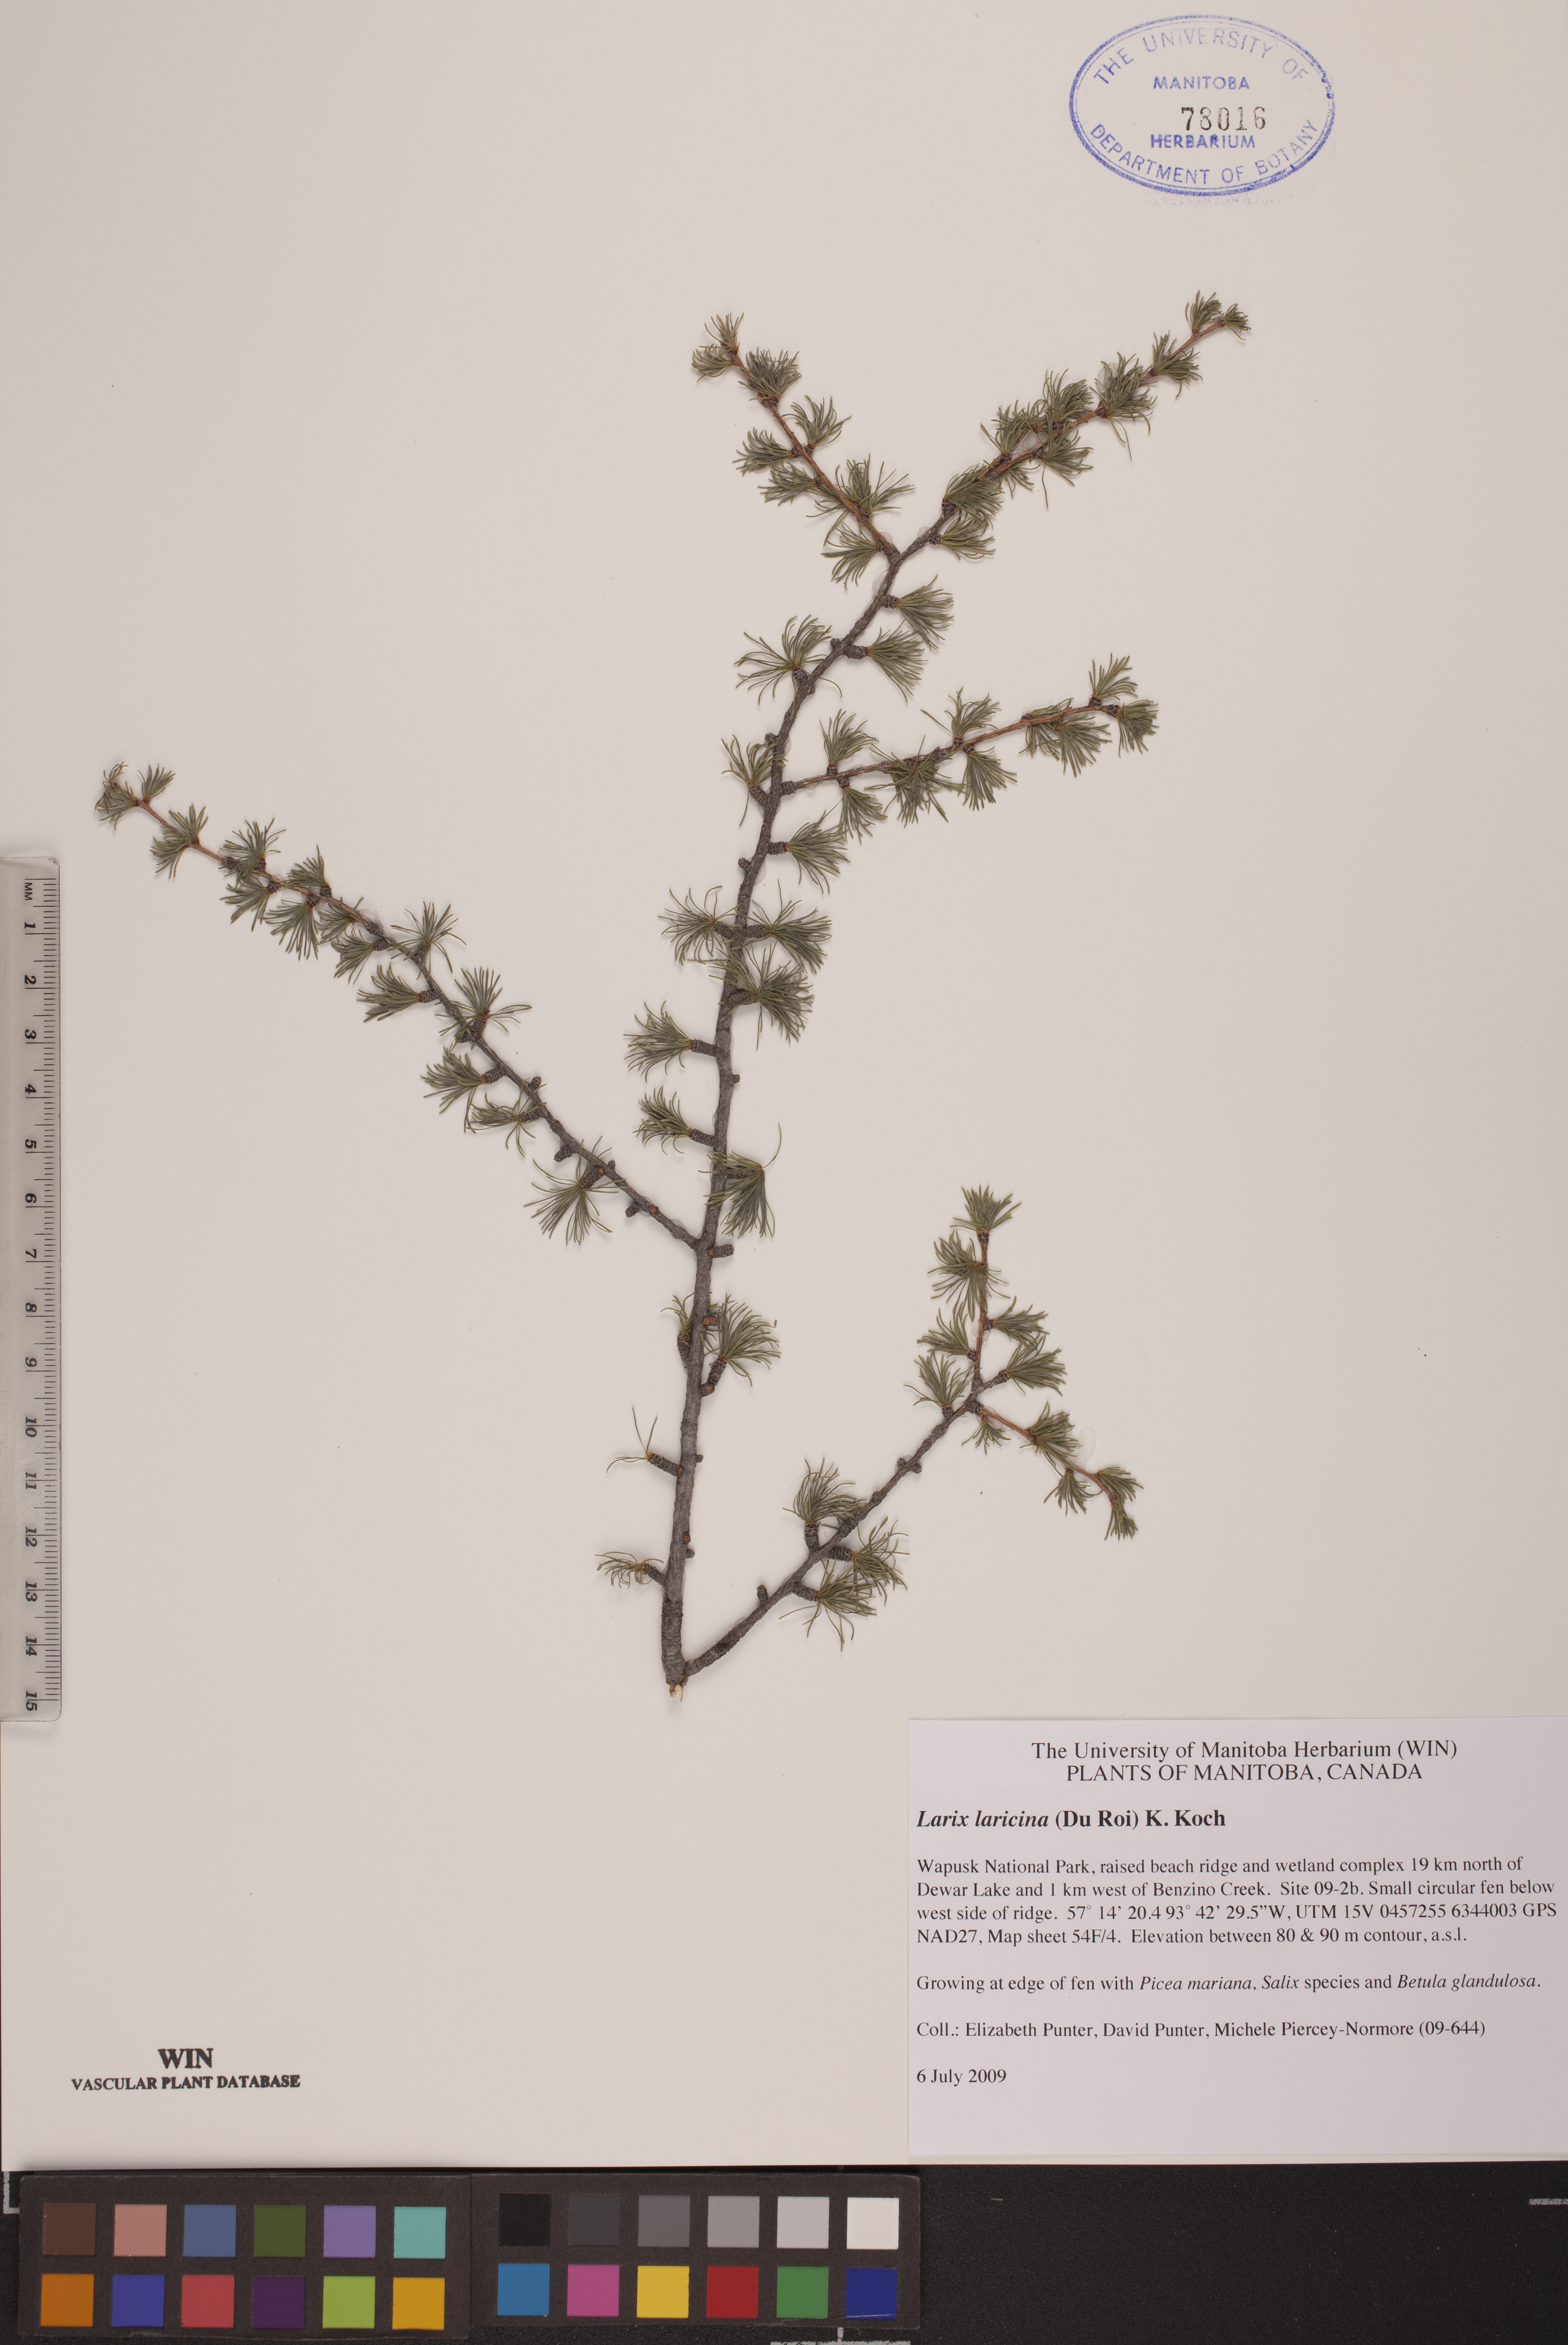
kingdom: Plantae
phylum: Tracheophyta
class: Pinopsida
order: Pinales
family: Pinaceae
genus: Larix
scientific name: Larix laricina
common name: American larch
